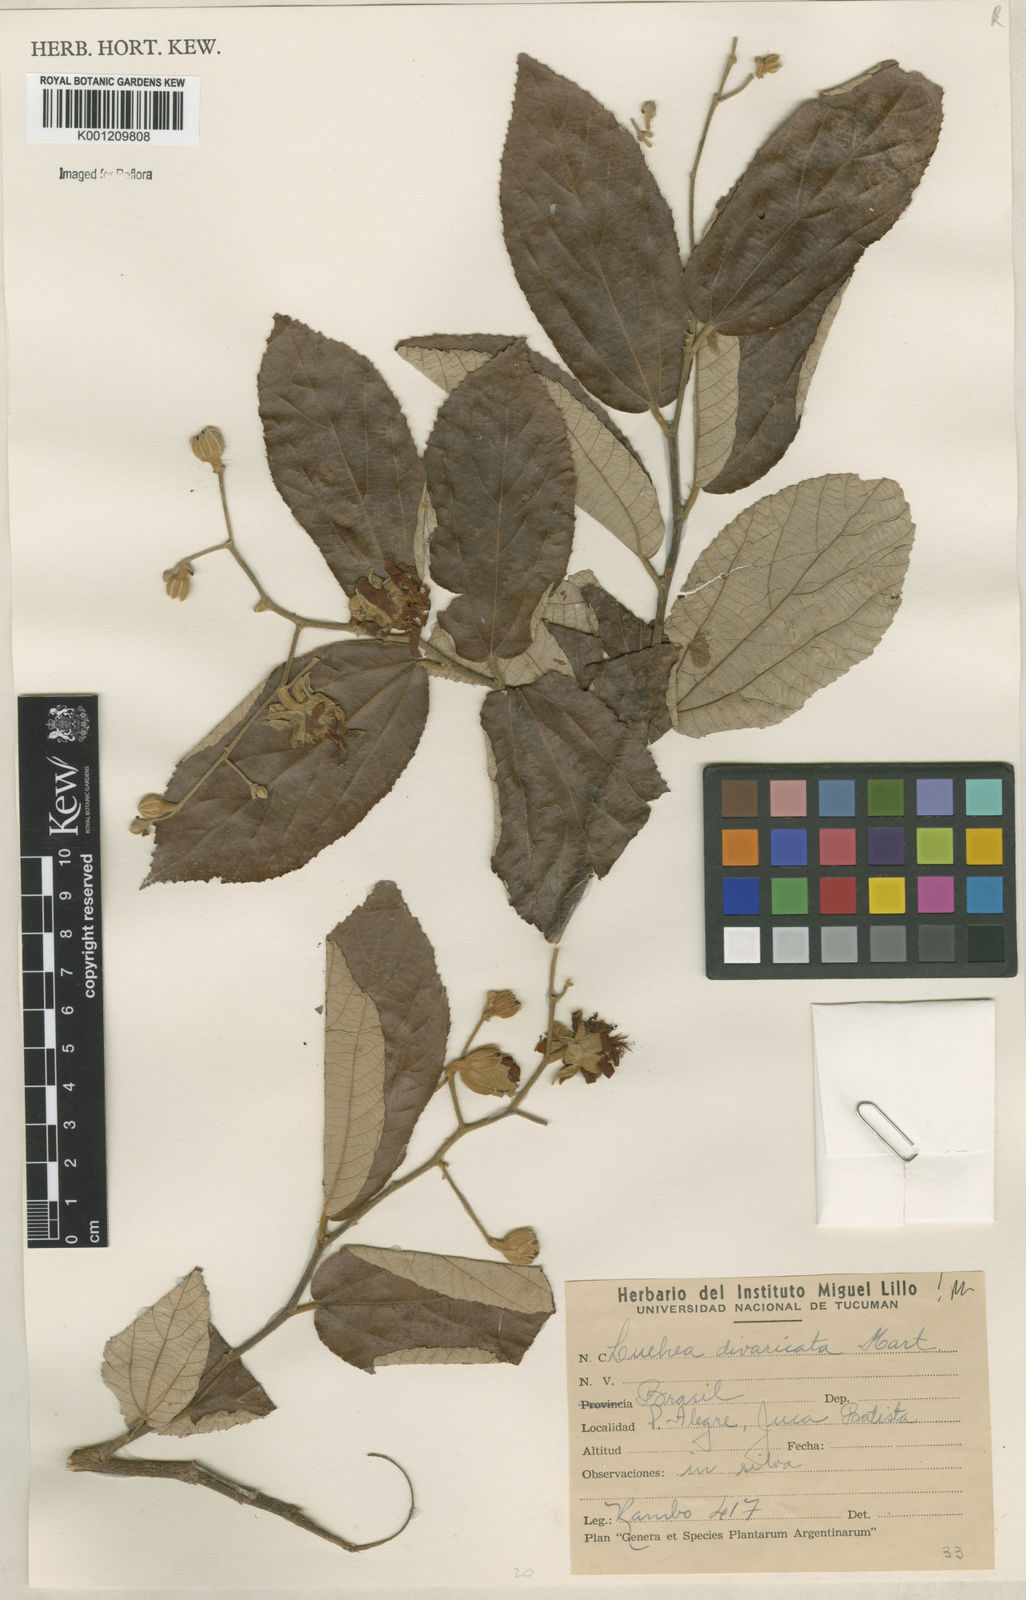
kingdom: Plantae
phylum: Tracheophyta
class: Magnoliopsida
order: Malvales
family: Malvaceae
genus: Luehea
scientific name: Luehea divaricata
